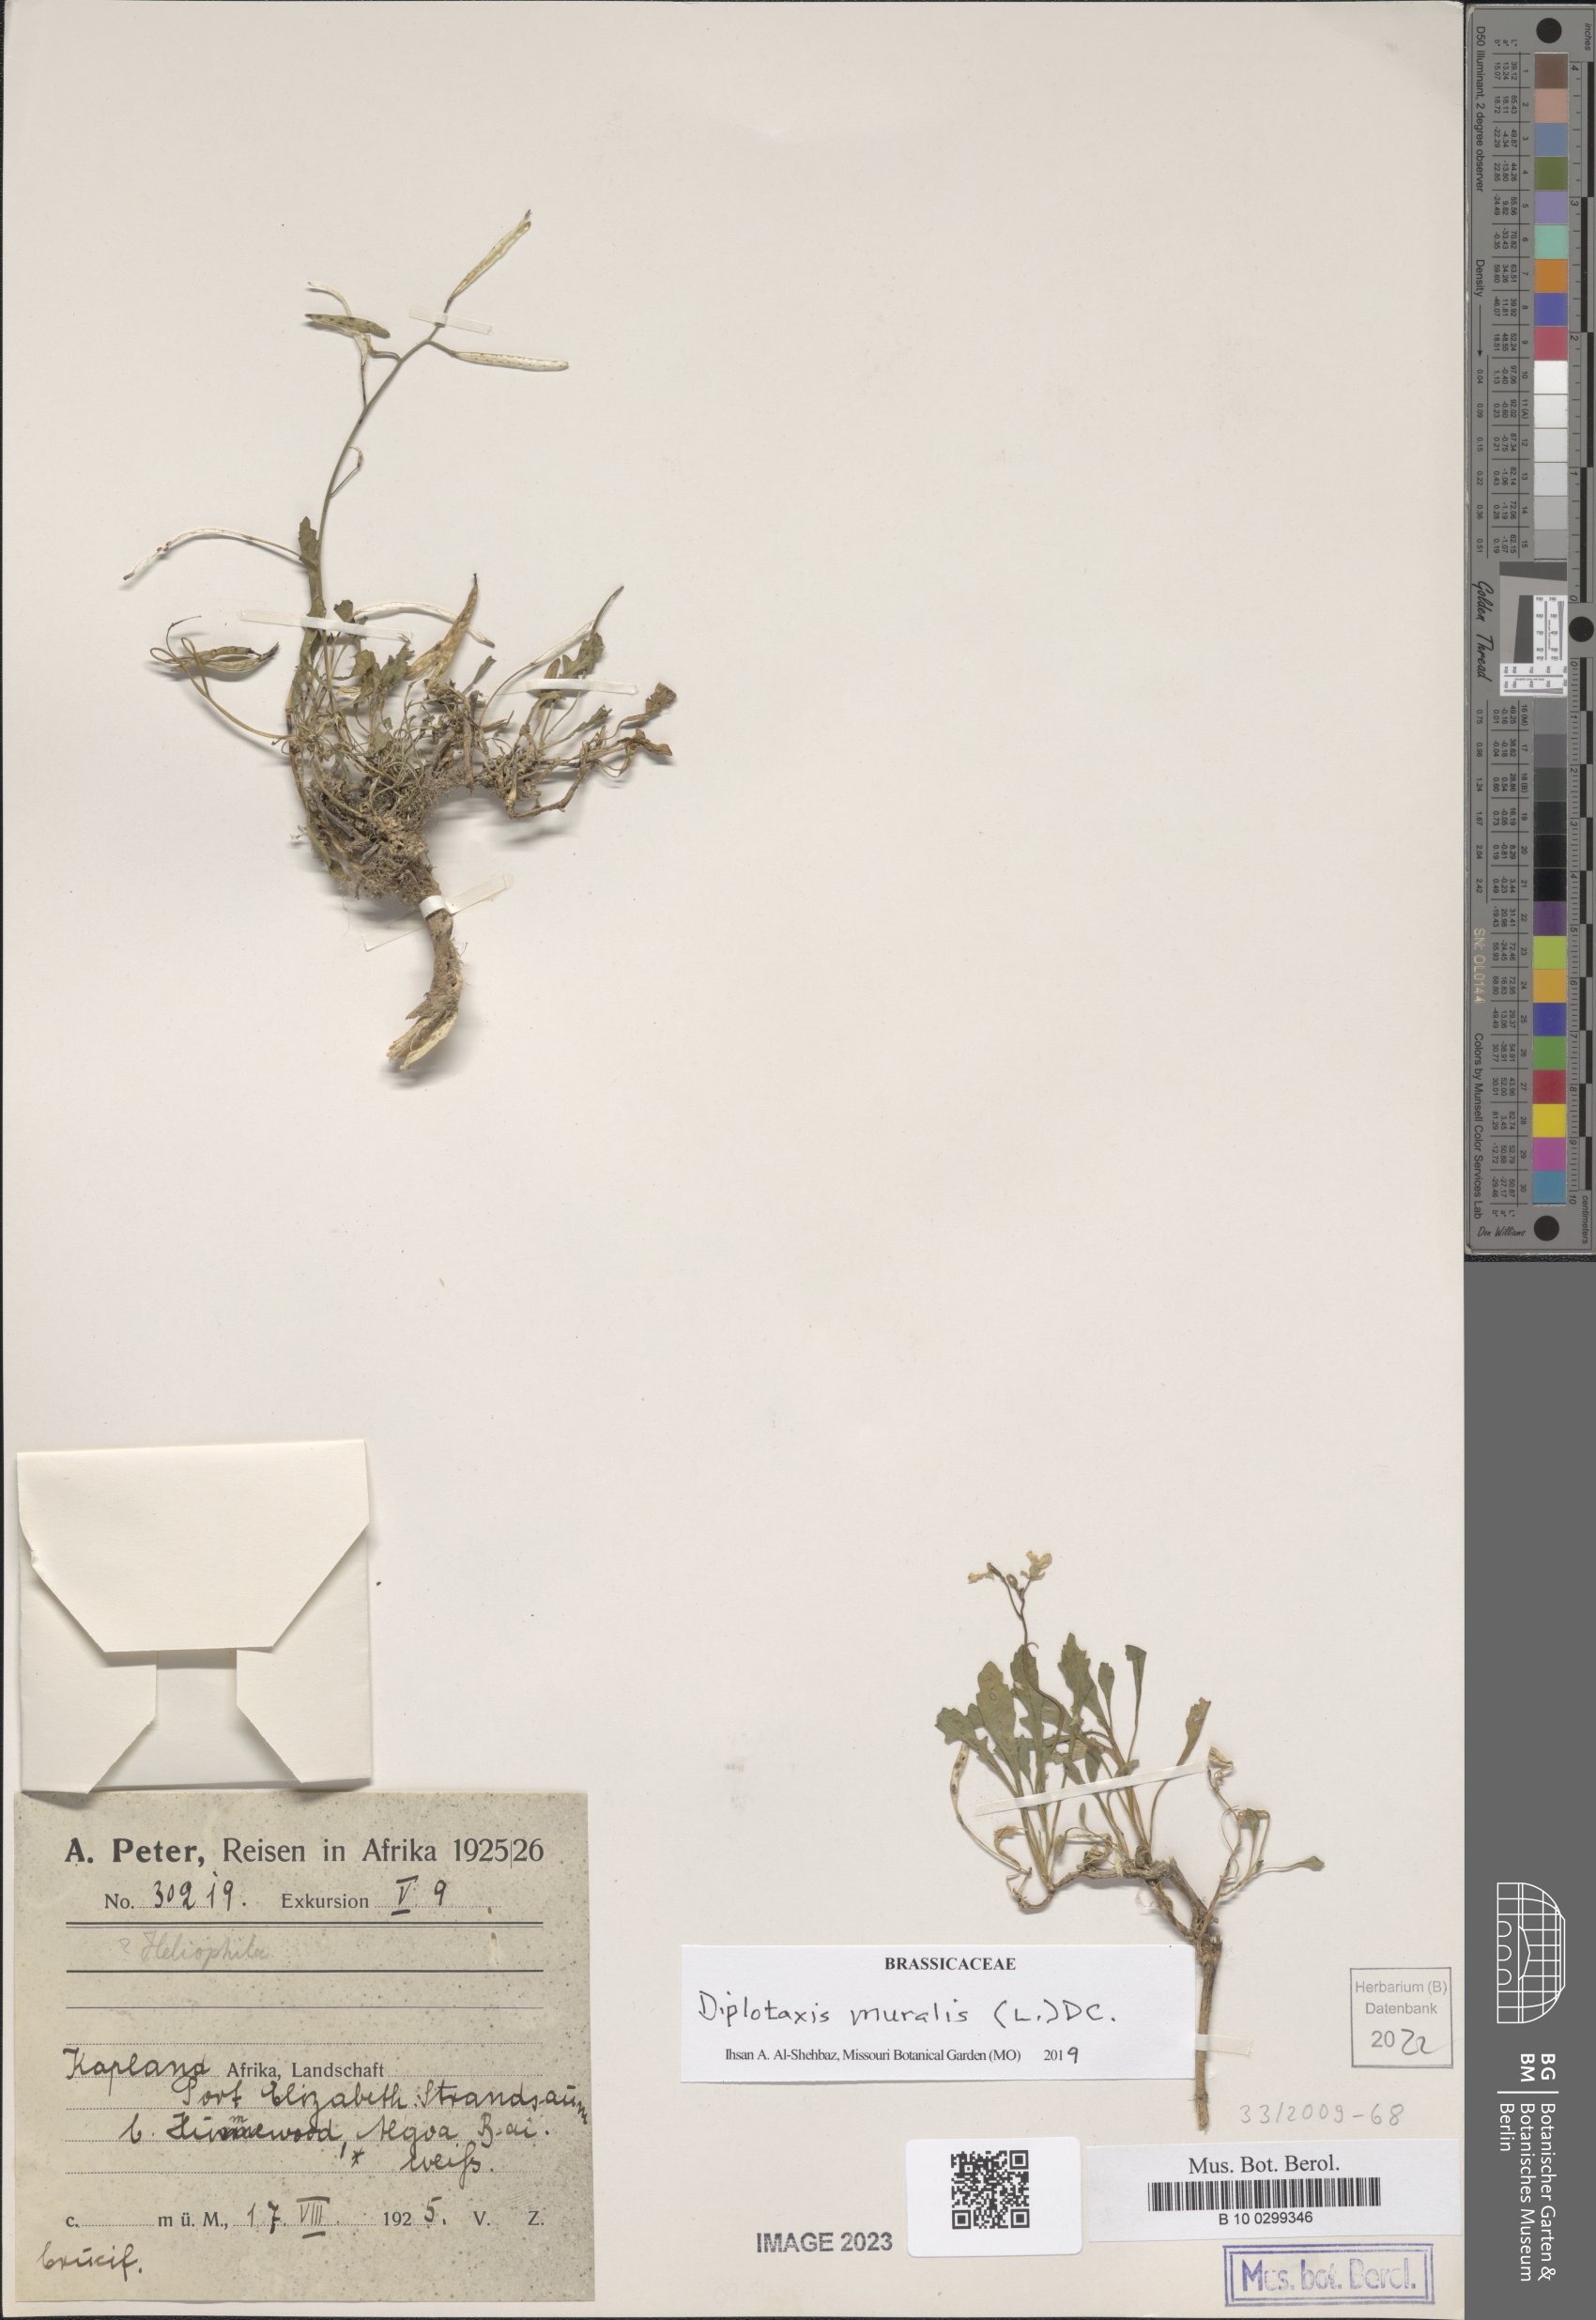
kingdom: Plantae
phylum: Tracheophyta
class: Magnoliopsida
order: Brassicales
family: Brassicaceae
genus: Diplotaxis
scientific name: Diplotaxis muralis
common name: Annual wall-rocket
